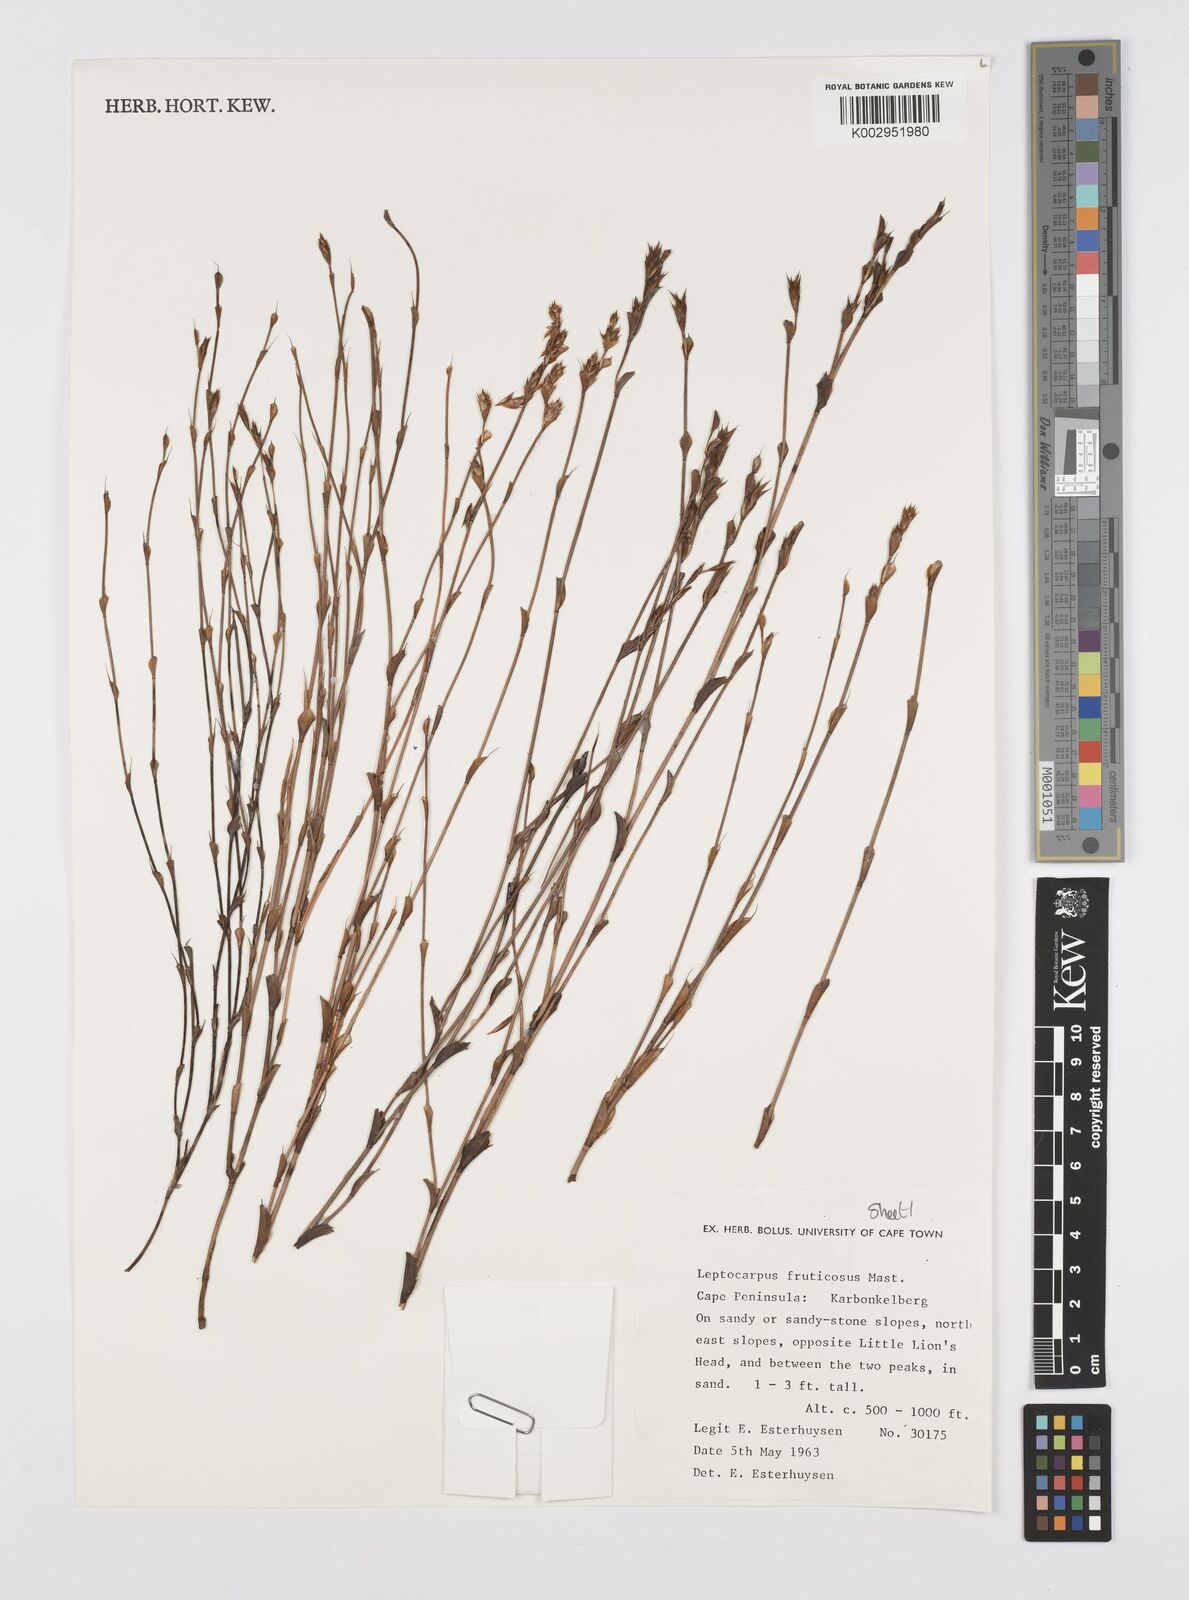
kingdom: Plantae
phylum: Tracheophyta
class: Liliopsida
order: Poales
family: Restionaceae
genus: Rhodocoma
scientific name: Rhodocoma fruticosa
